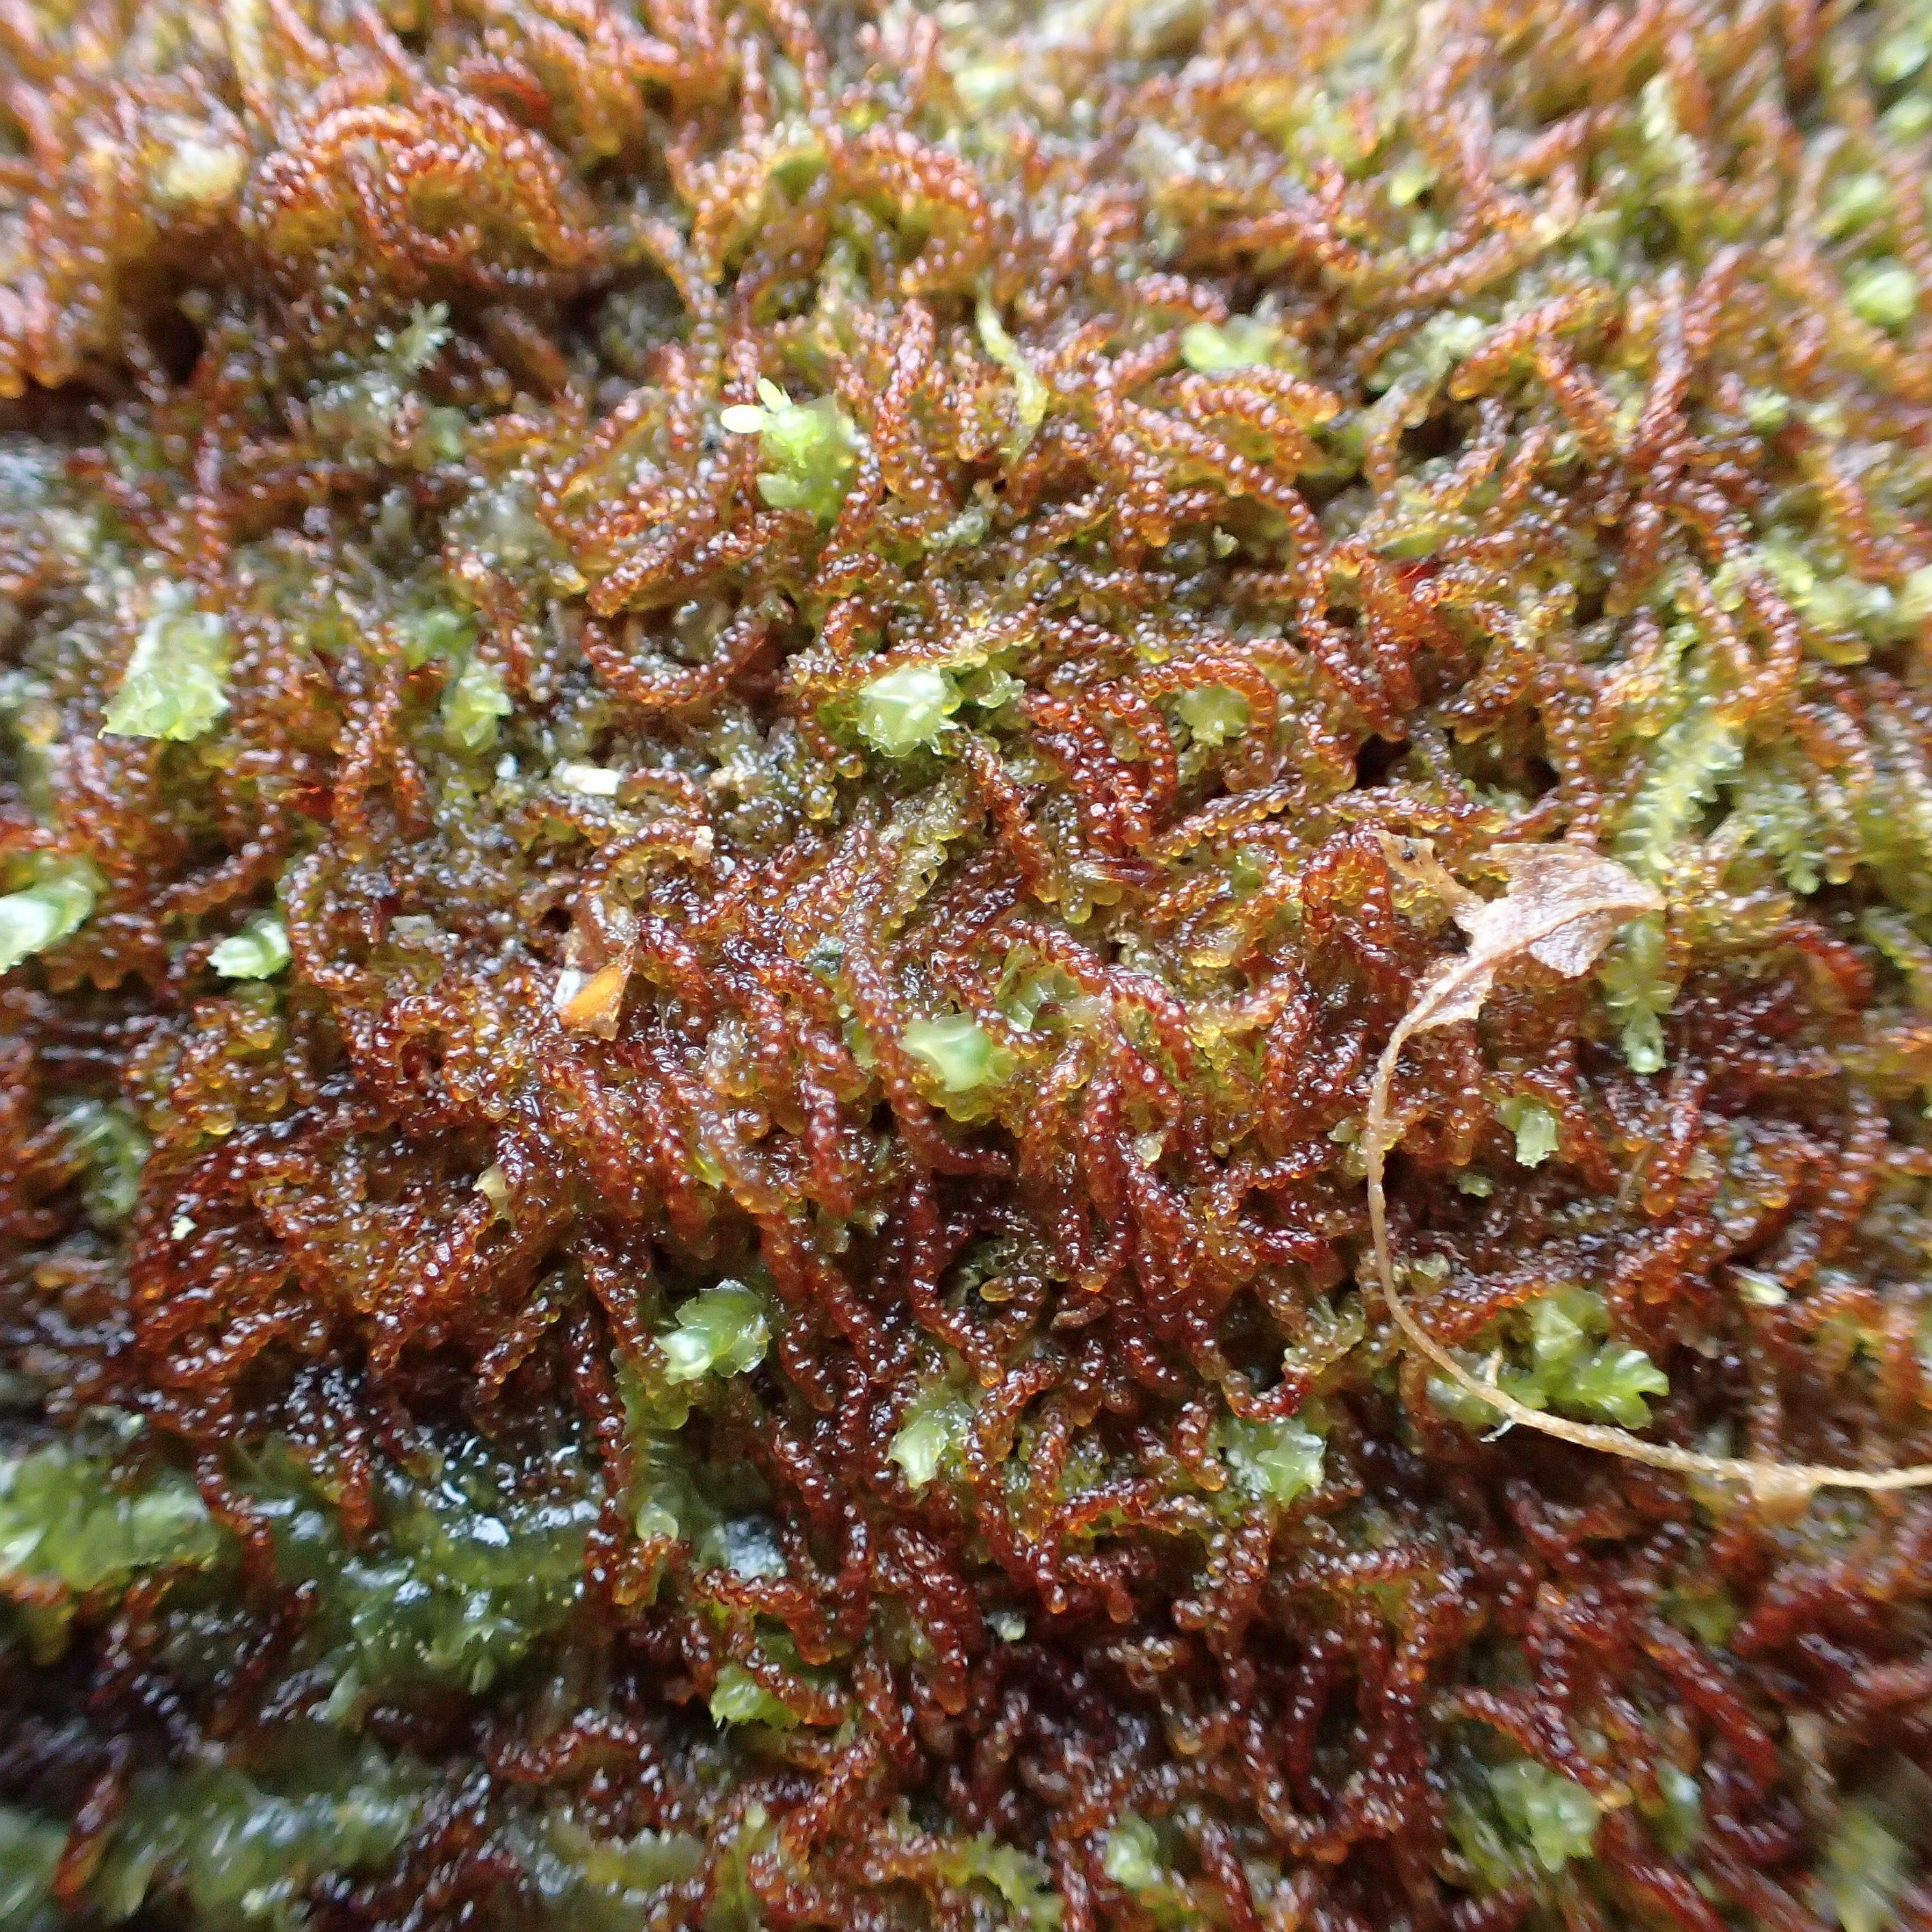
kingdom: Plantae
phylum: Marchantiophyta
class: Jungermanniopsida
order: Jungermanniales
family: Cephaloziaceae
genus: Nowellia
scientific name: Nowellia curvifolia
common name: Krumbladet stødmos
